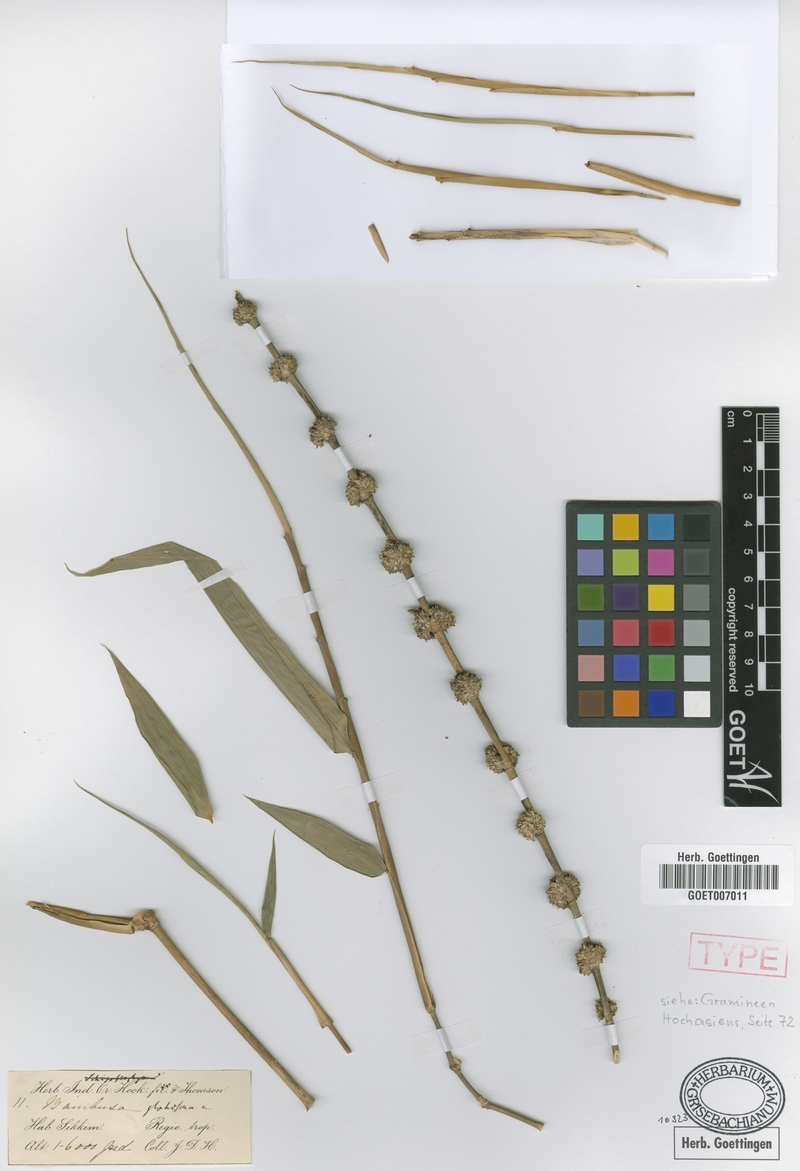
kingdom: Plantae
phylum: Tracheophyta
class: Liliopsida
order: Poales
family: Poaceae
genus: Dendrocalamus
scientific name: Dendrocalamus hookeri
